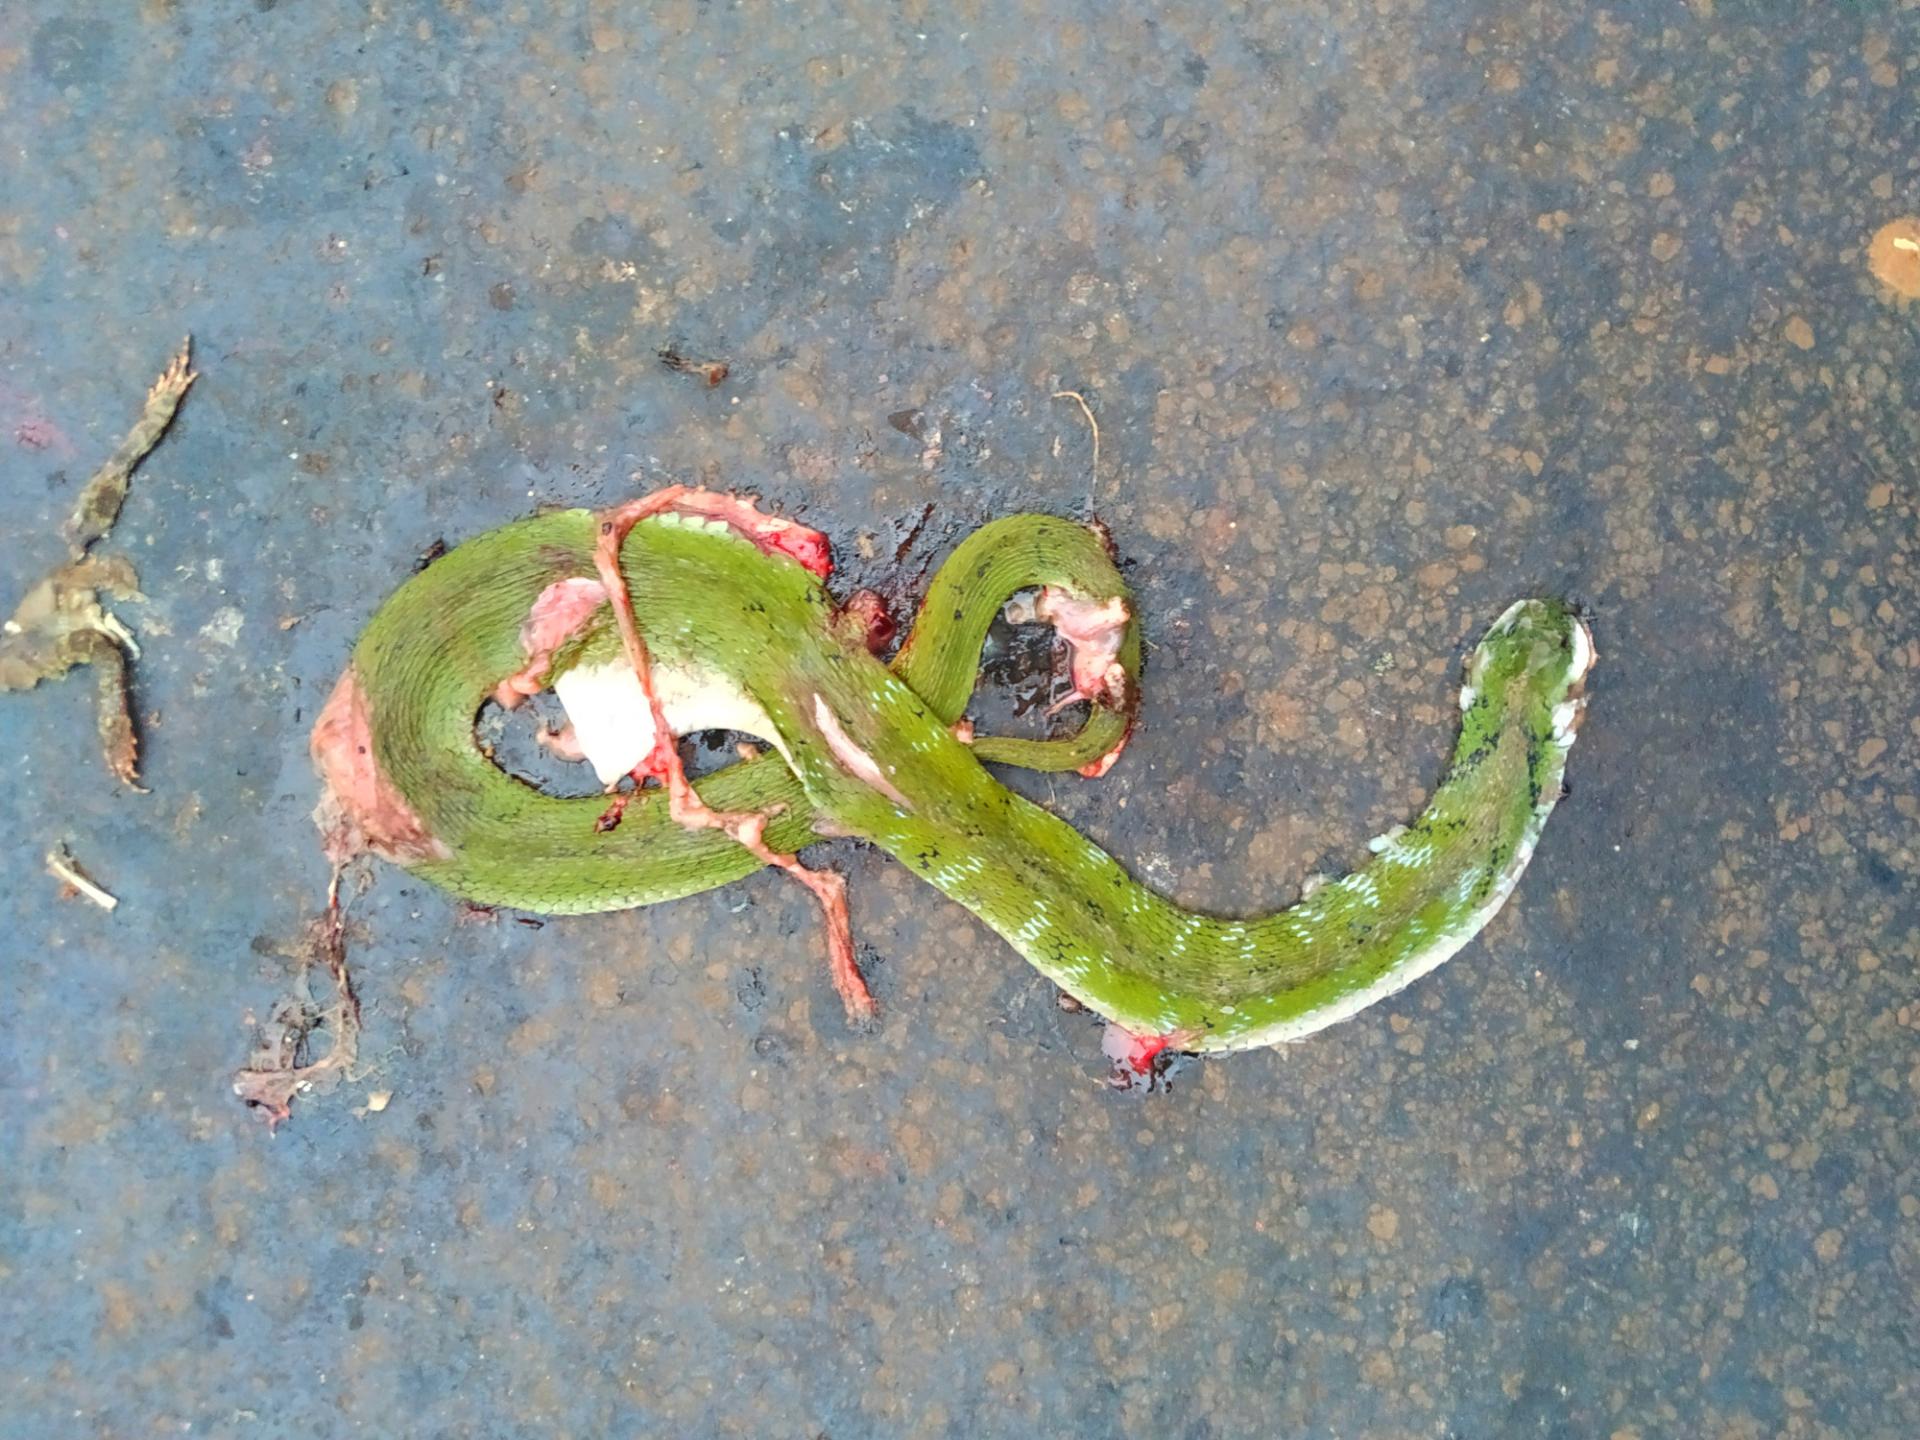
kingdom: Animalia
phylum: Chordata
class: Squamata
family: Colubridae
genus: Rhabdophis
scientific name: Rhabdophis plumbicolor
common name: Green keelback
